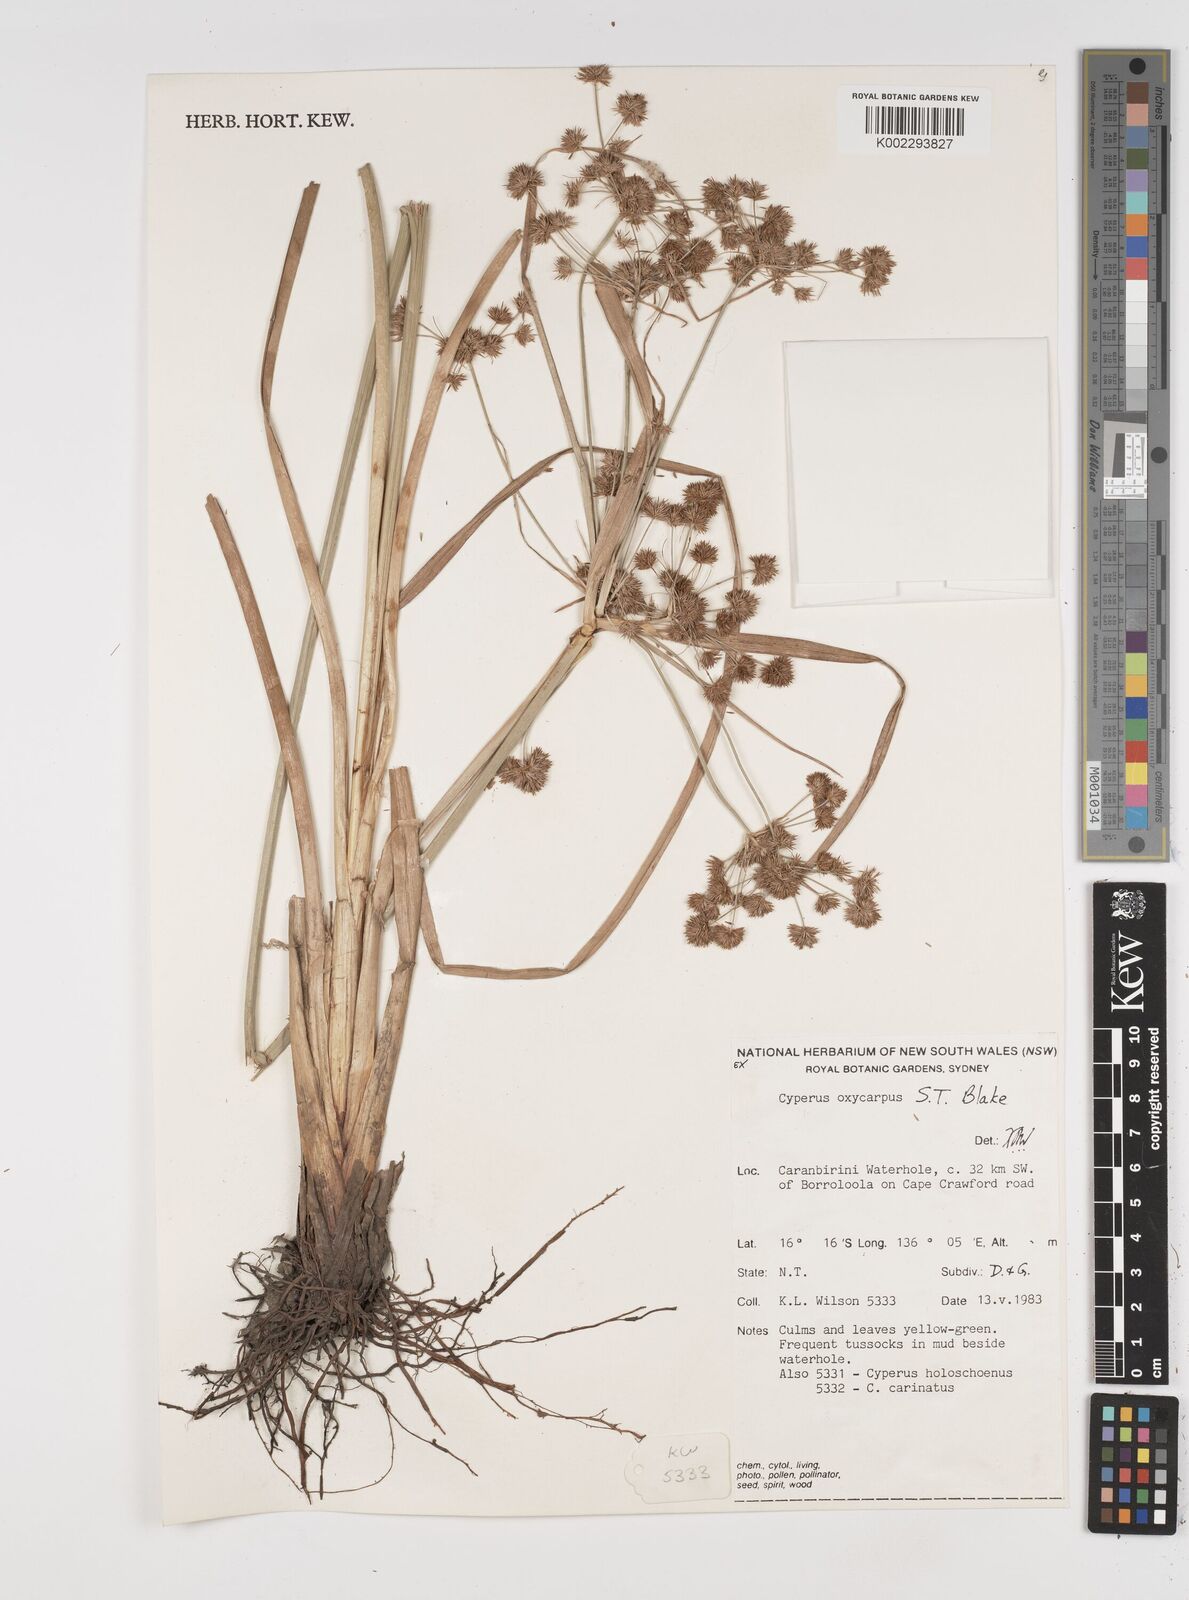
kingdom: Plantae
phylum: Tracheophyta
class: Liliopsida
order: Poales
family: Cyperaceae
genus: Cyperus
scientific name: Cyperus oxycarpus
